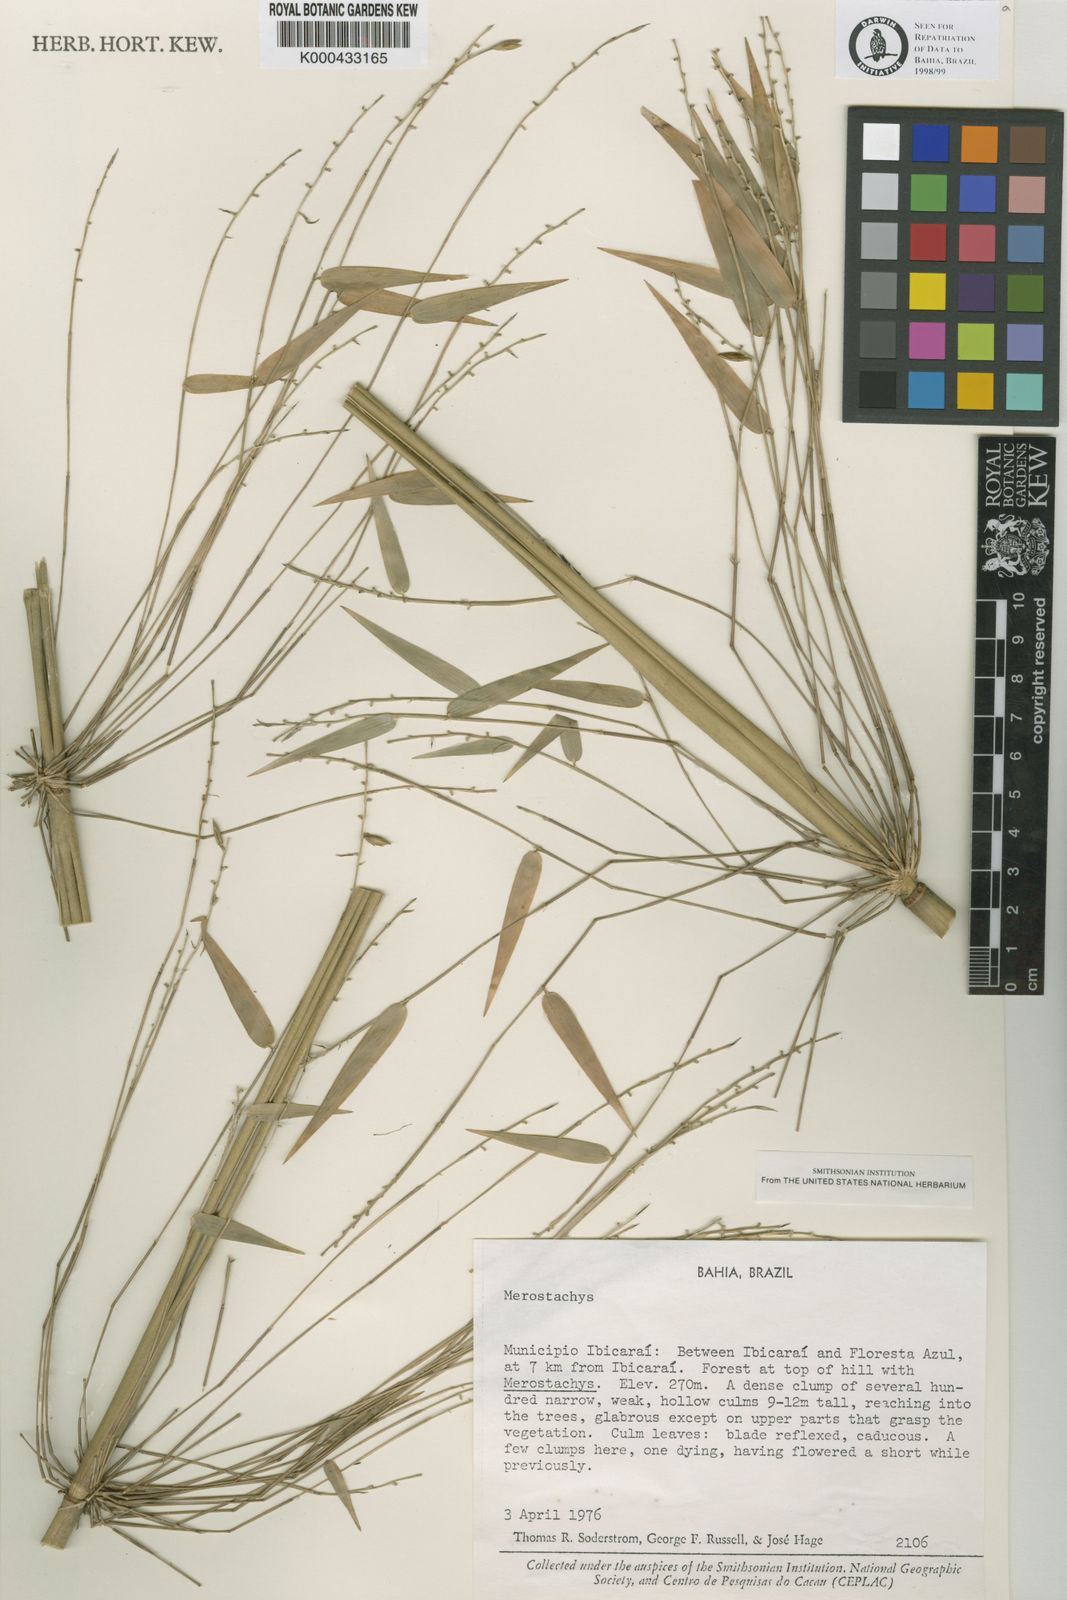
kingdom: Plantae
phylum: Tracheophyta
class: Liliopsida
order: Poales
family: Poaceae
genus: Merostachys
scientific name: Merostachys leptophylla
